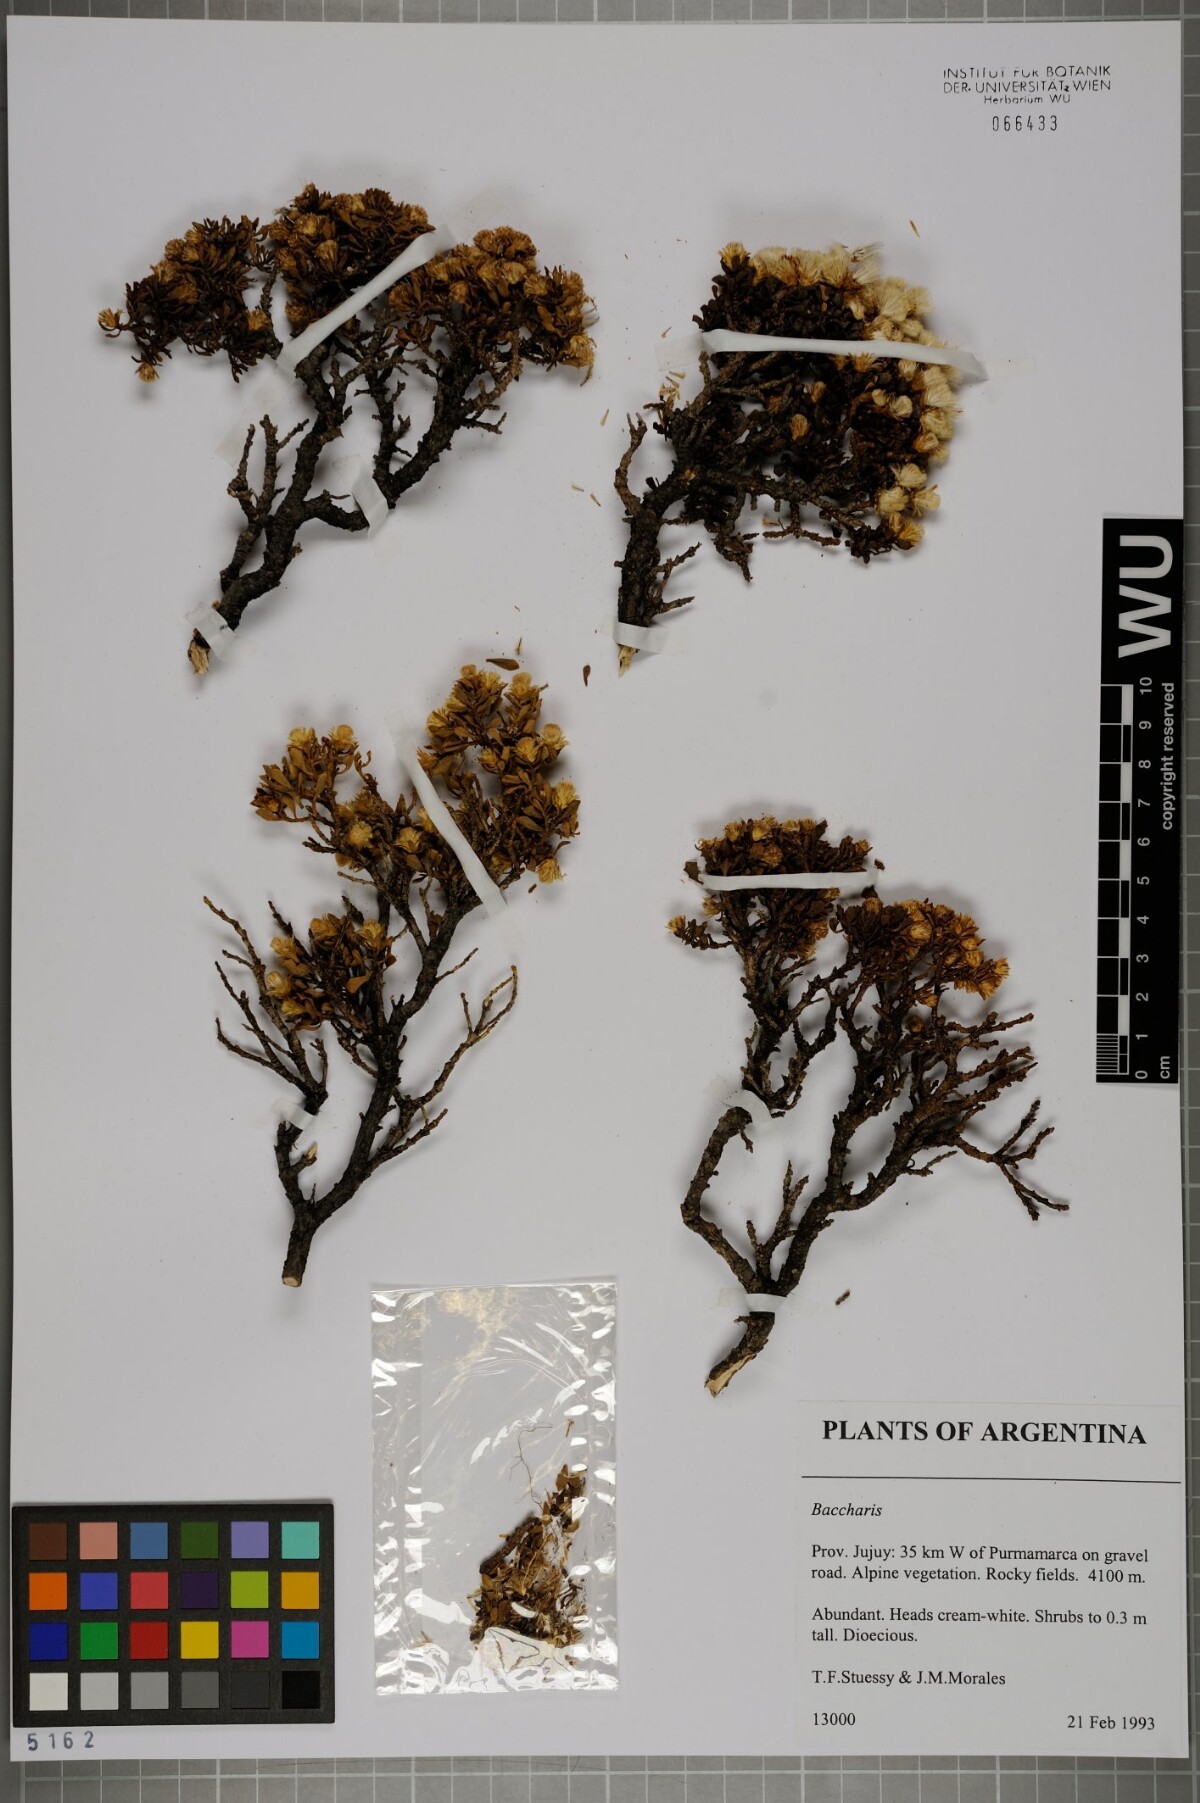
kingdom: Plantae
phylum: Tracheophyta
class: Magnoliopsida
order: Asterales
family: Asteraceae
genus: Baccharis
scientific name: Baccharis
